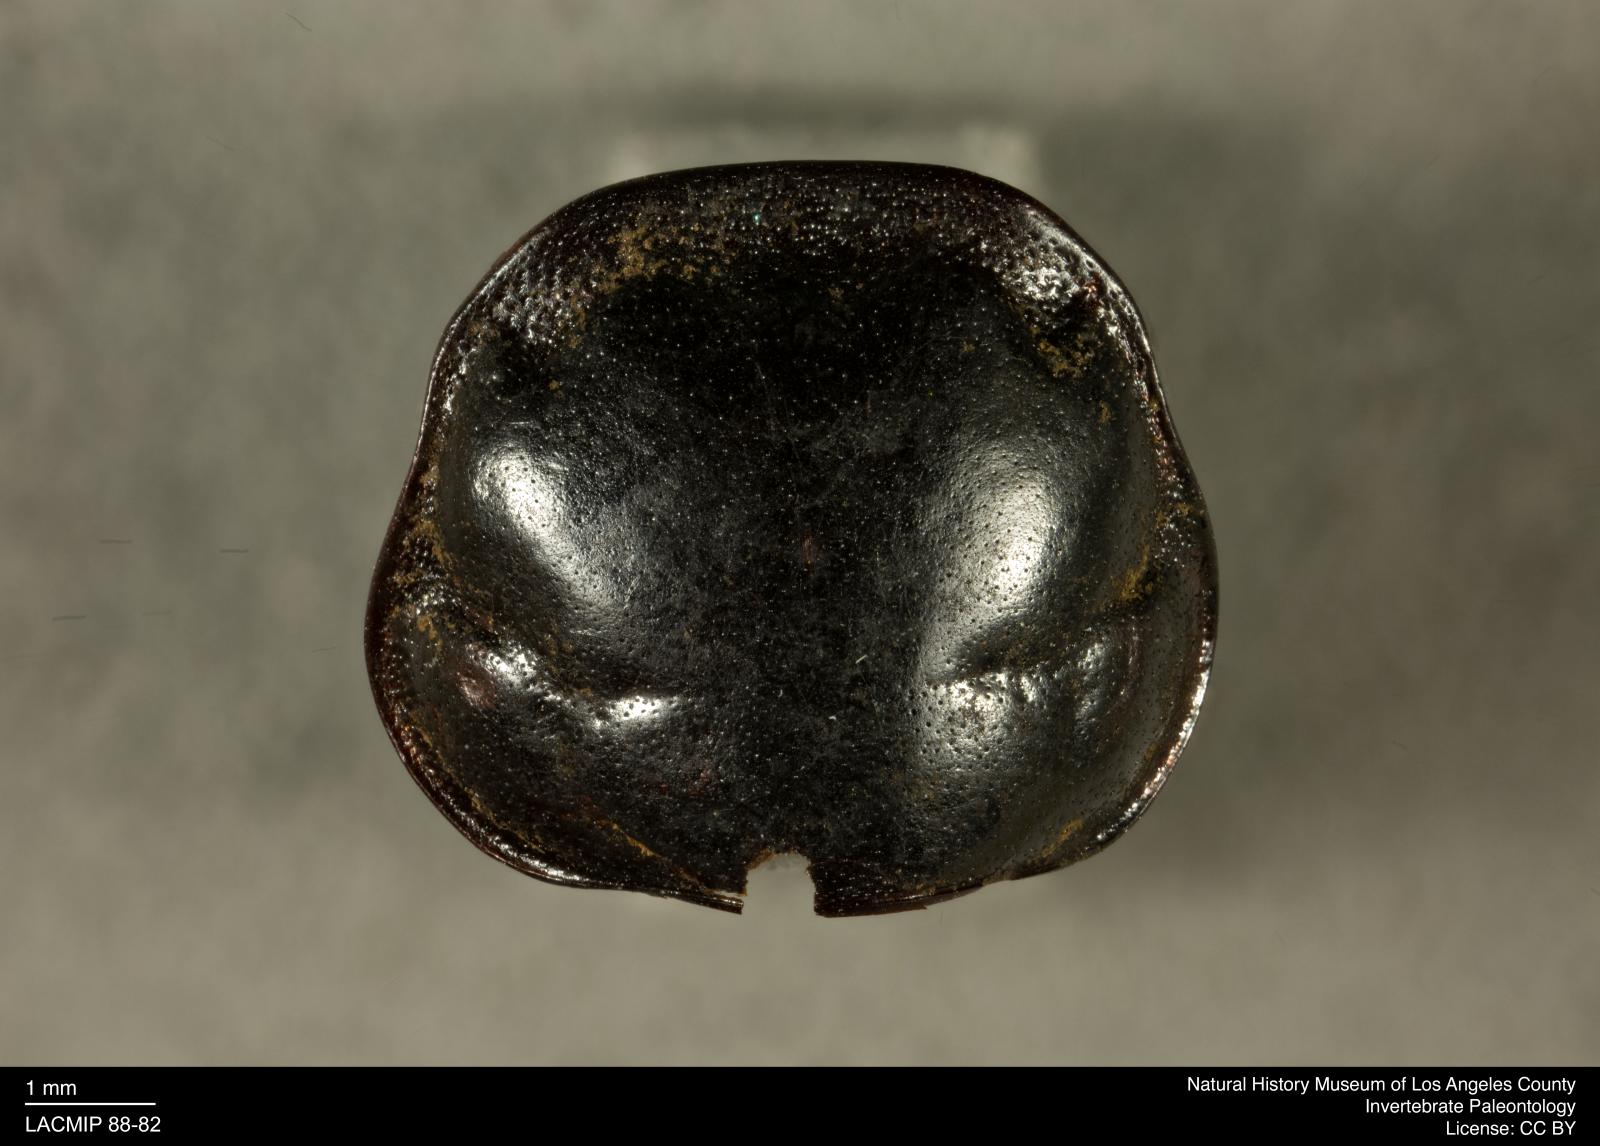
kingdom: Animalia
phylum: Arthropoda
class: Insecta
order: Coleoptera
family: Staphylinidae
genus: Nicrophorus
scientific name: Nicrophorus marginatus
